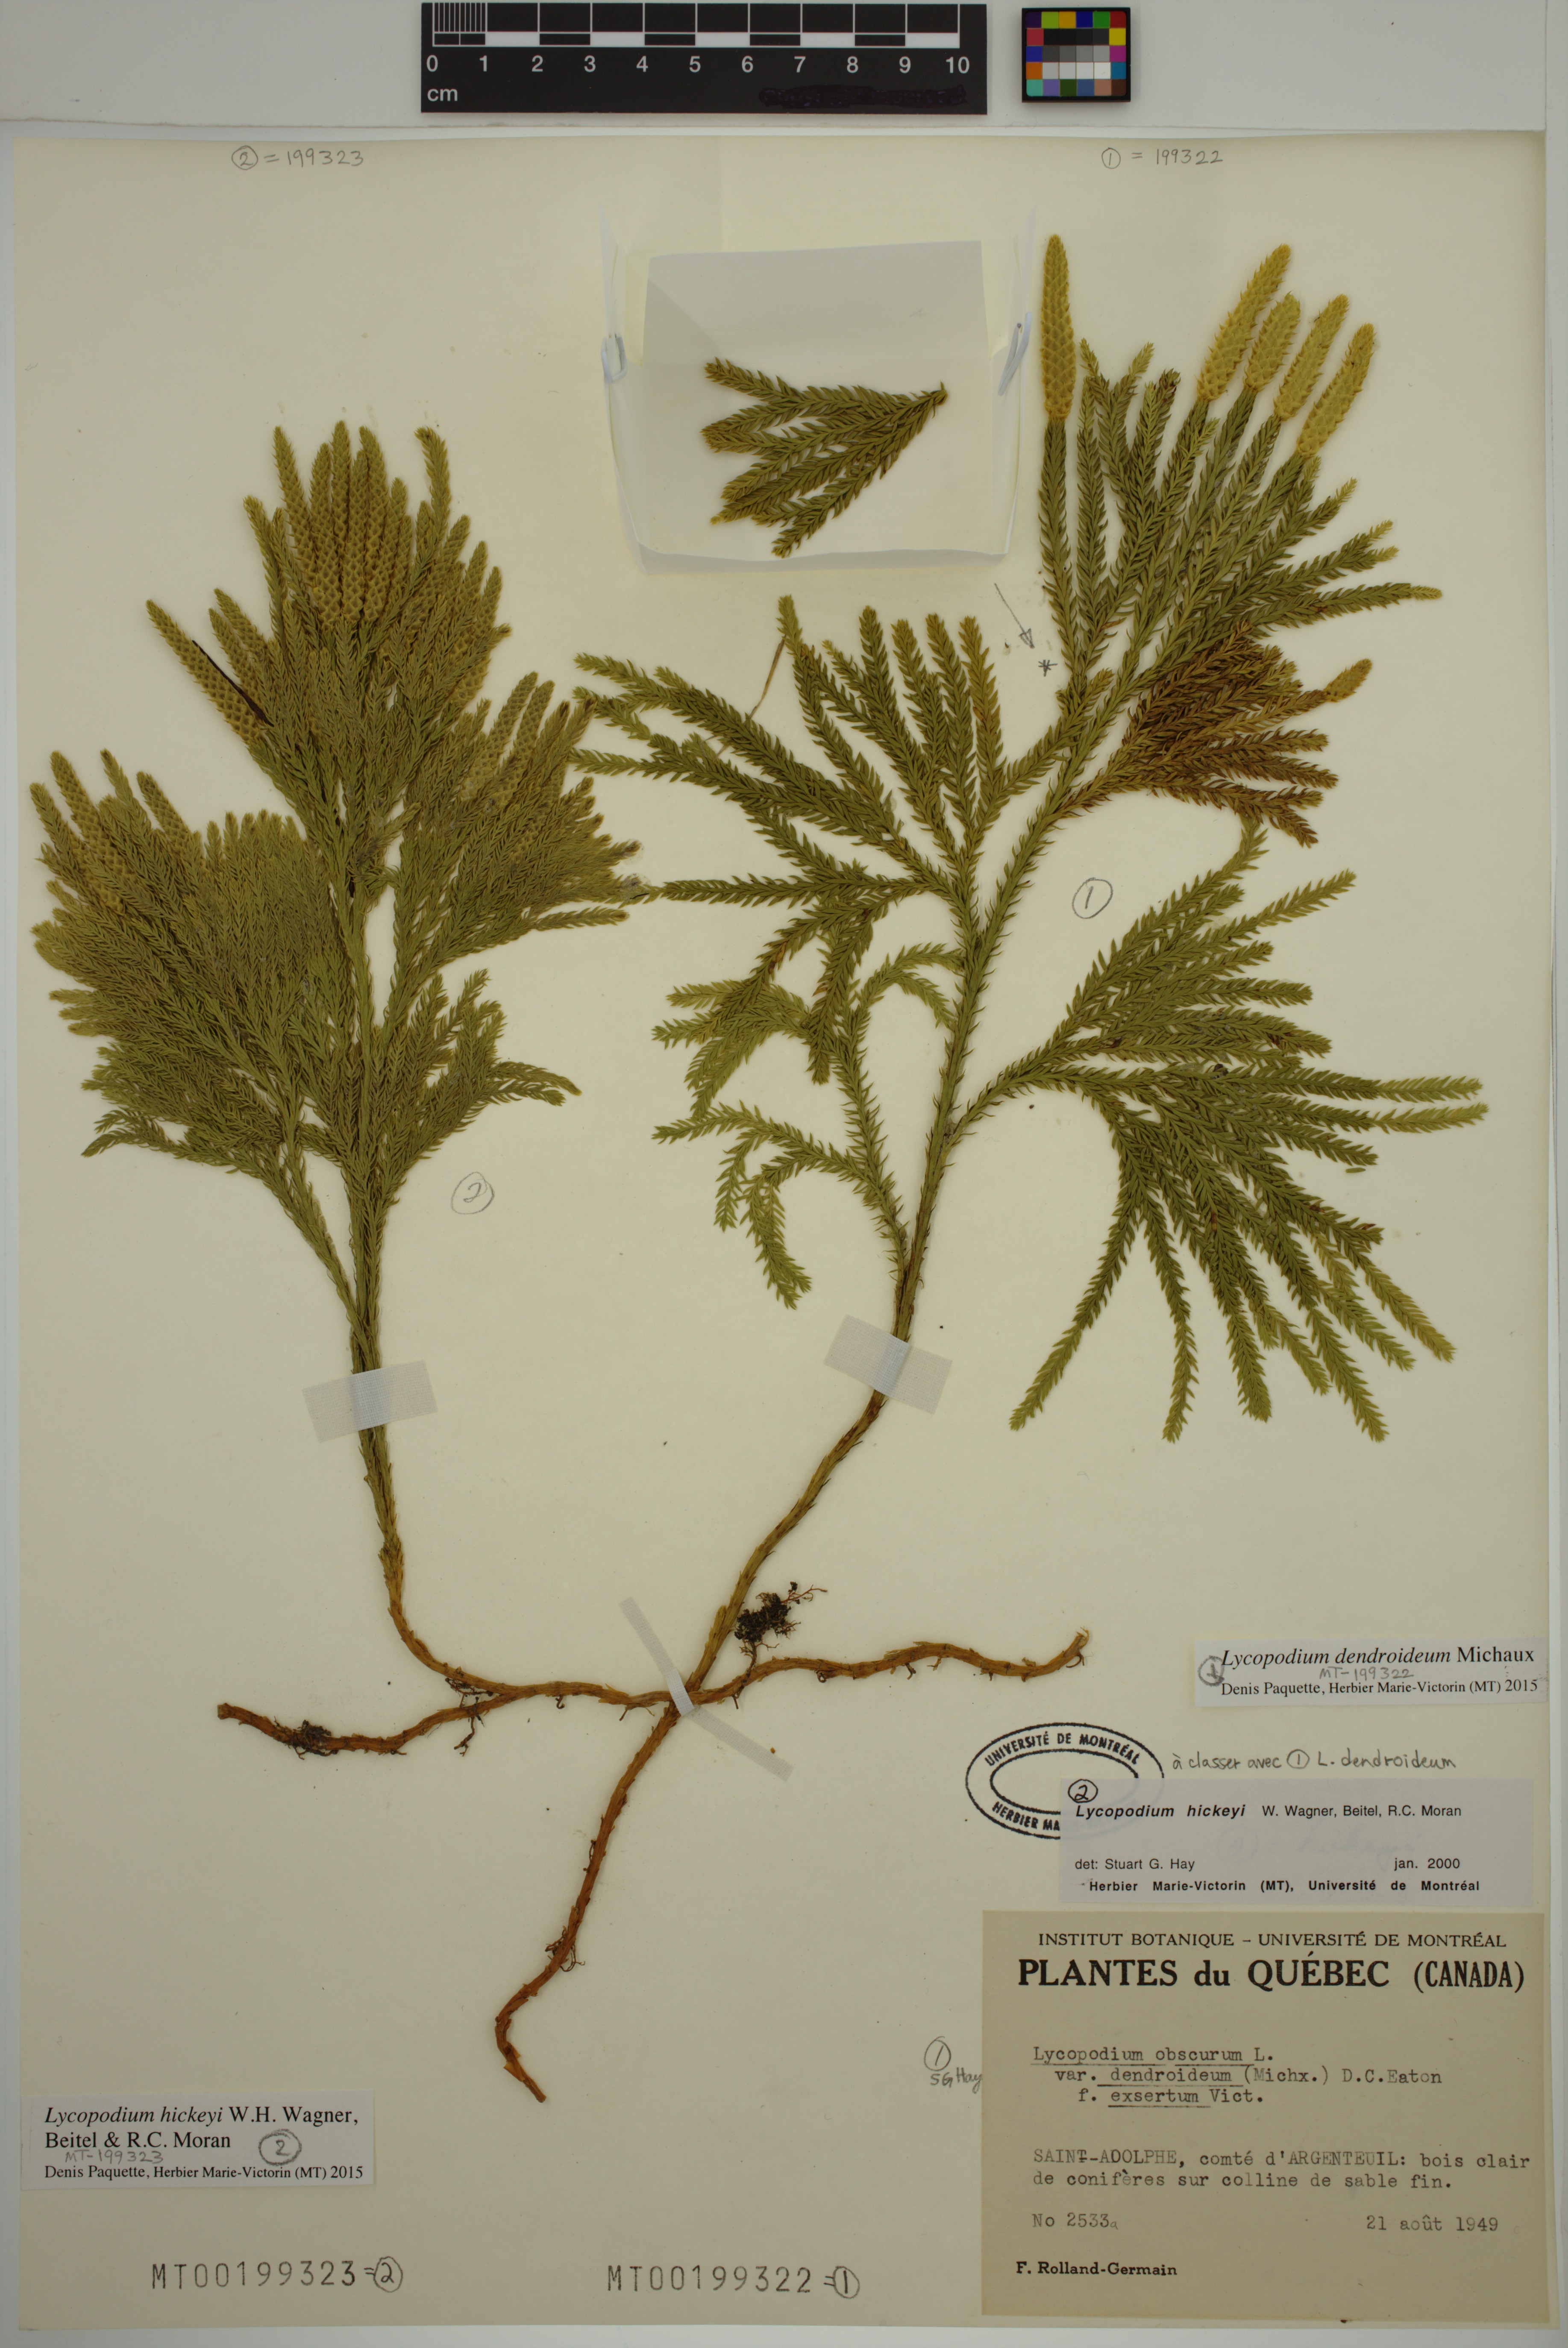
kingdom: Plantae
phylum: Tracheophyta
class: Lycopodiopsida
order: Lycopodiales
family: Lycopodiaceae
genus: Dendrolycopodium
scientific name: Dendrolycopodium dendroideum
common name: Northern tree-clubmoss
